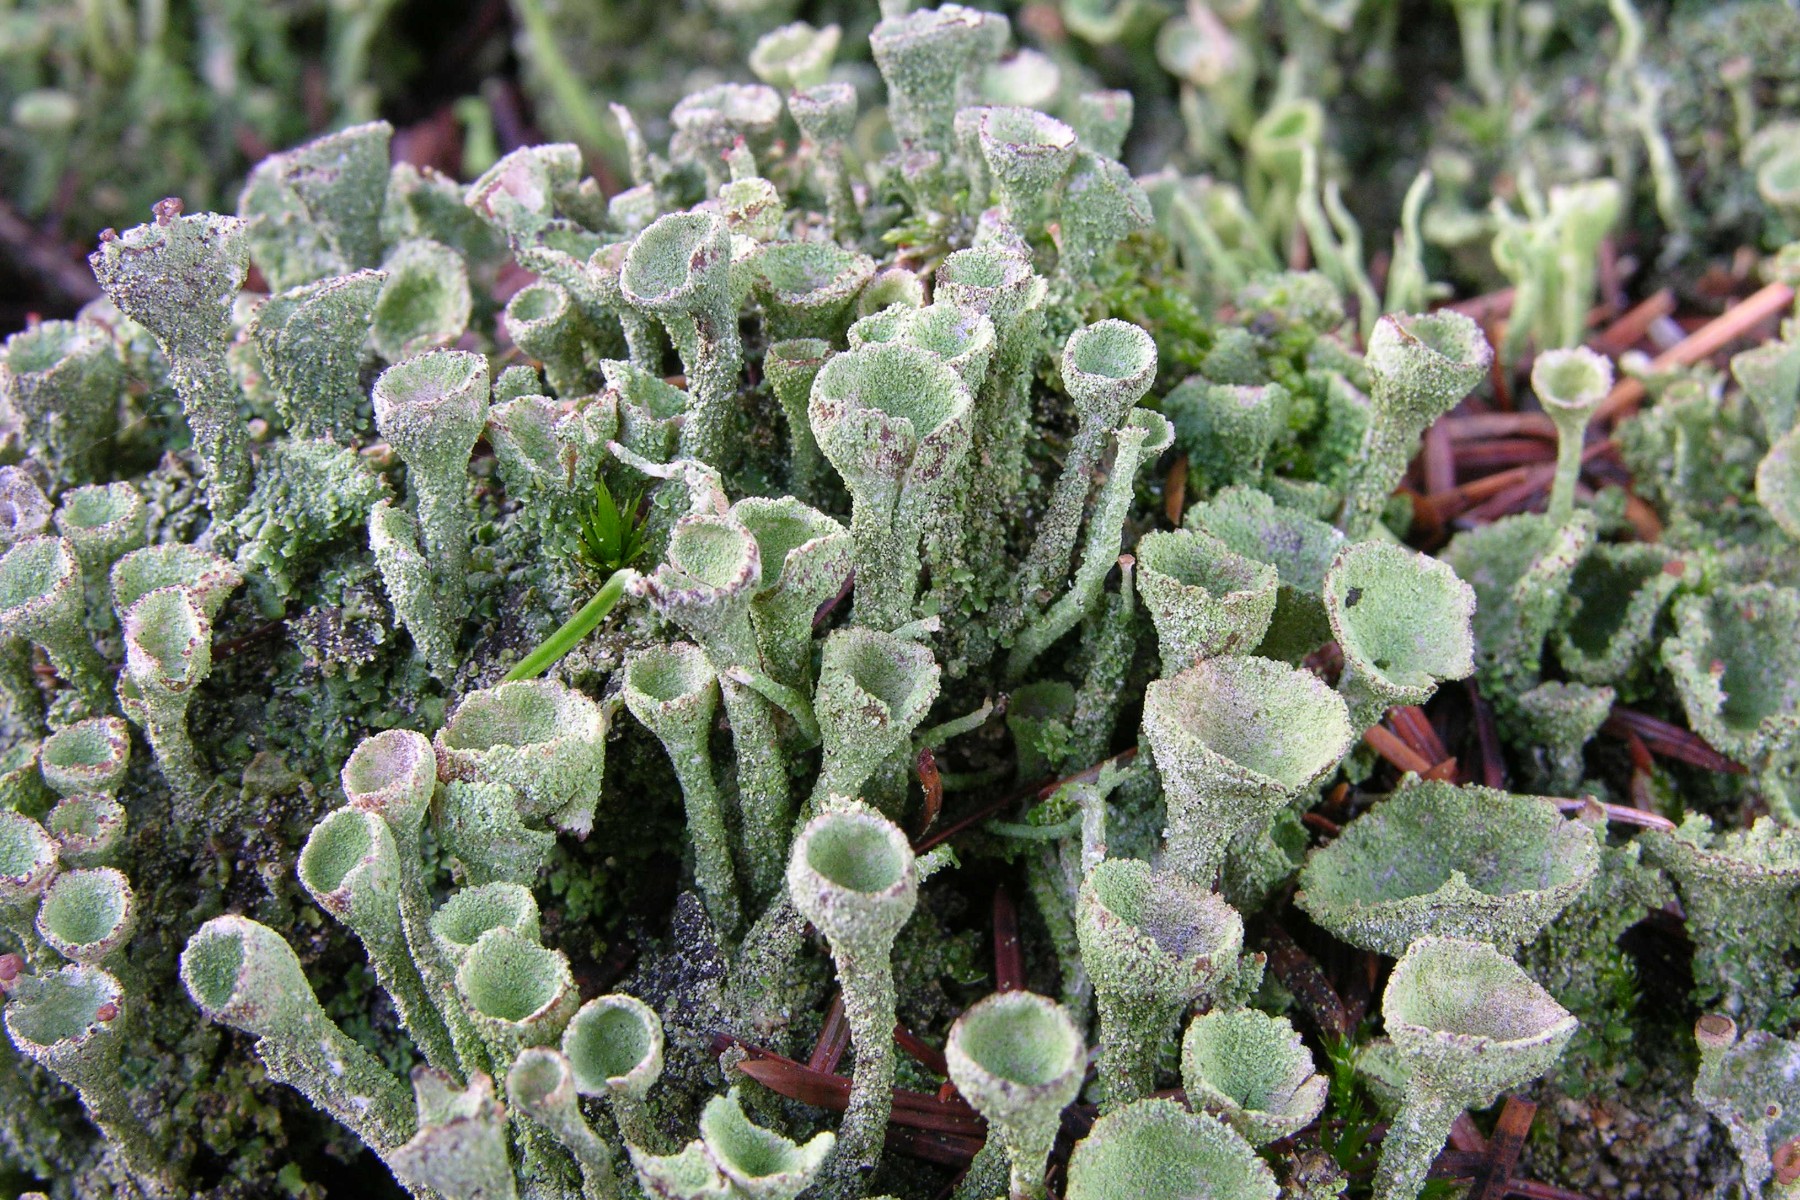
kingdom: Fungi
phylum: Ascomycota
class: Lecanoromycetes
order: Lecanorales
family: Cladoniaceae
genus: Cladonia
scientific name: Cladonia
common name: brungrøn bægerlav
